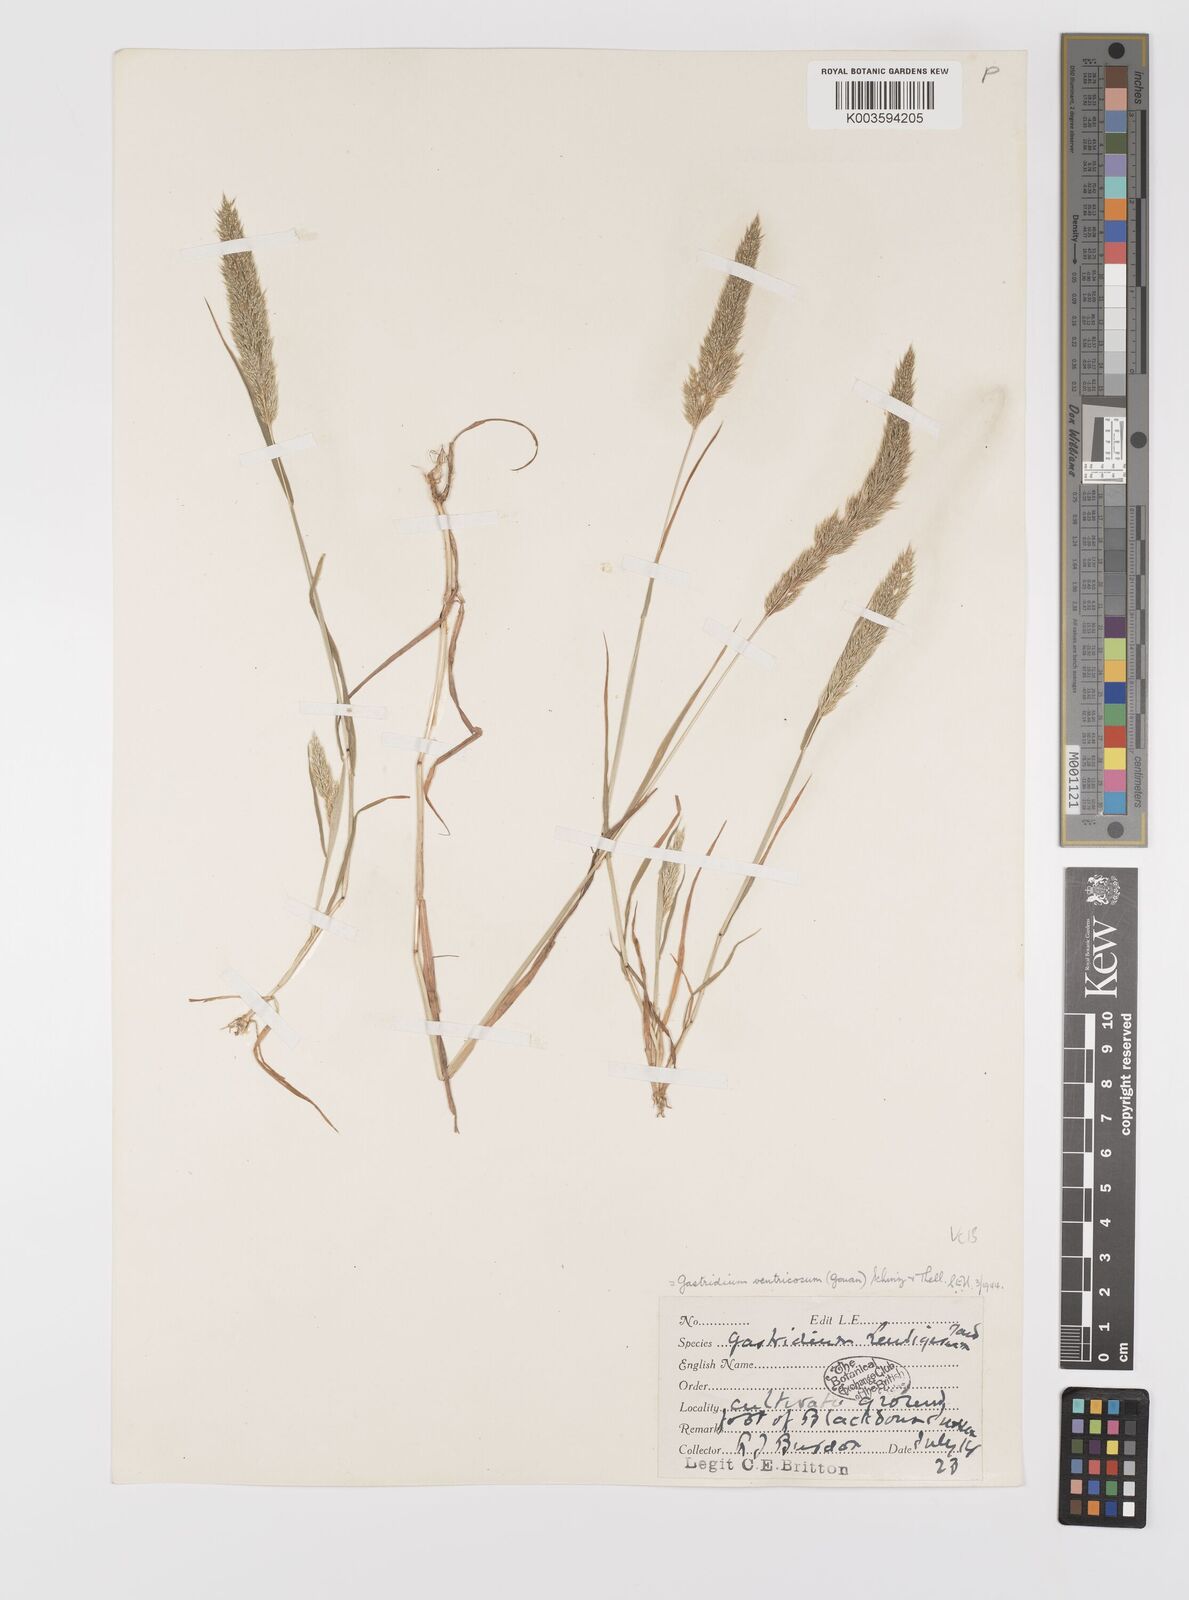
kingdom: Plantae
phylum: Tracheophyta
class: Liliopsida
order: Poales
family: Poaceae
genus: Gastridium
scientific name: Gastridium ventricosum
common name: Nit-grass
